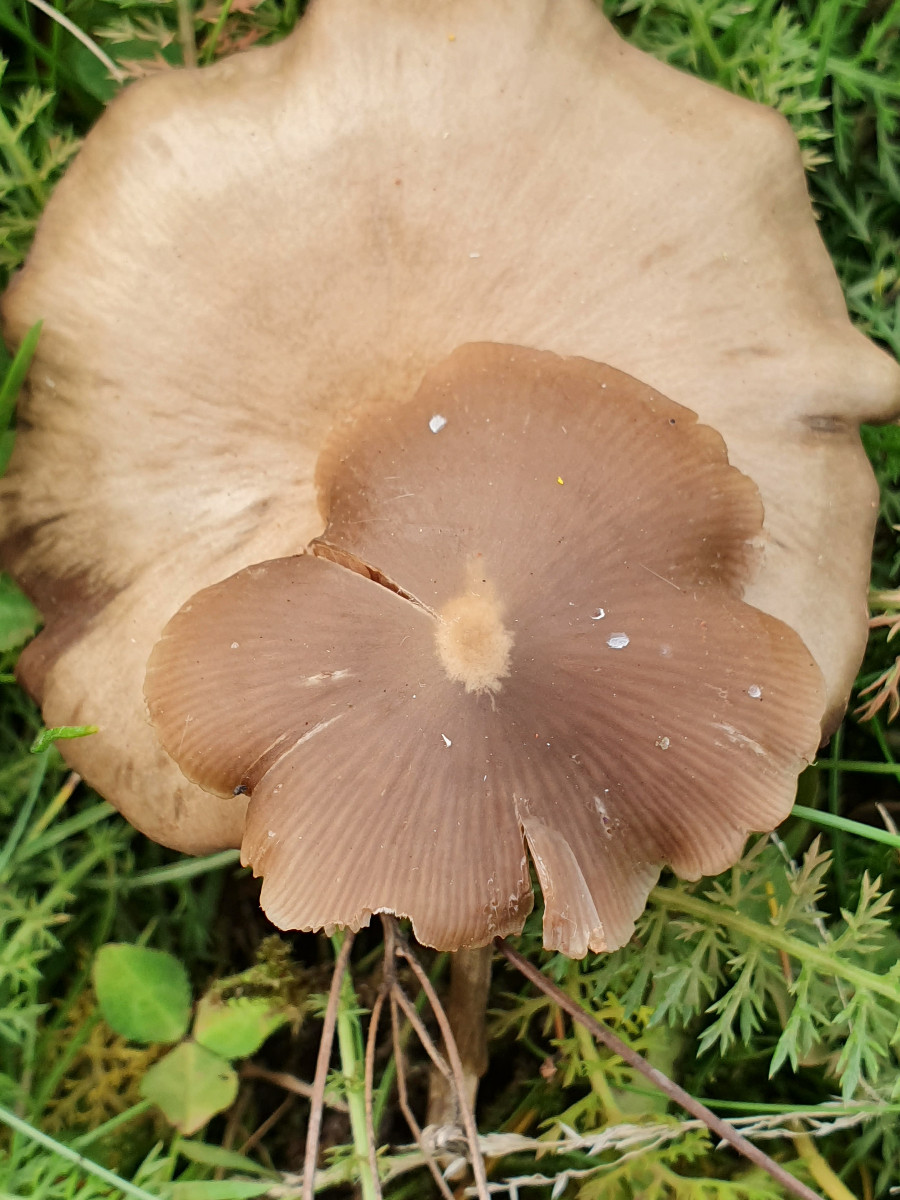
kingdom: Fungi
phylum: Basidiomycota
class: Agaricomycetes
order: Agaricales
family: Entolomataceae
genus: Entoloma
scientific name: Entoloma
